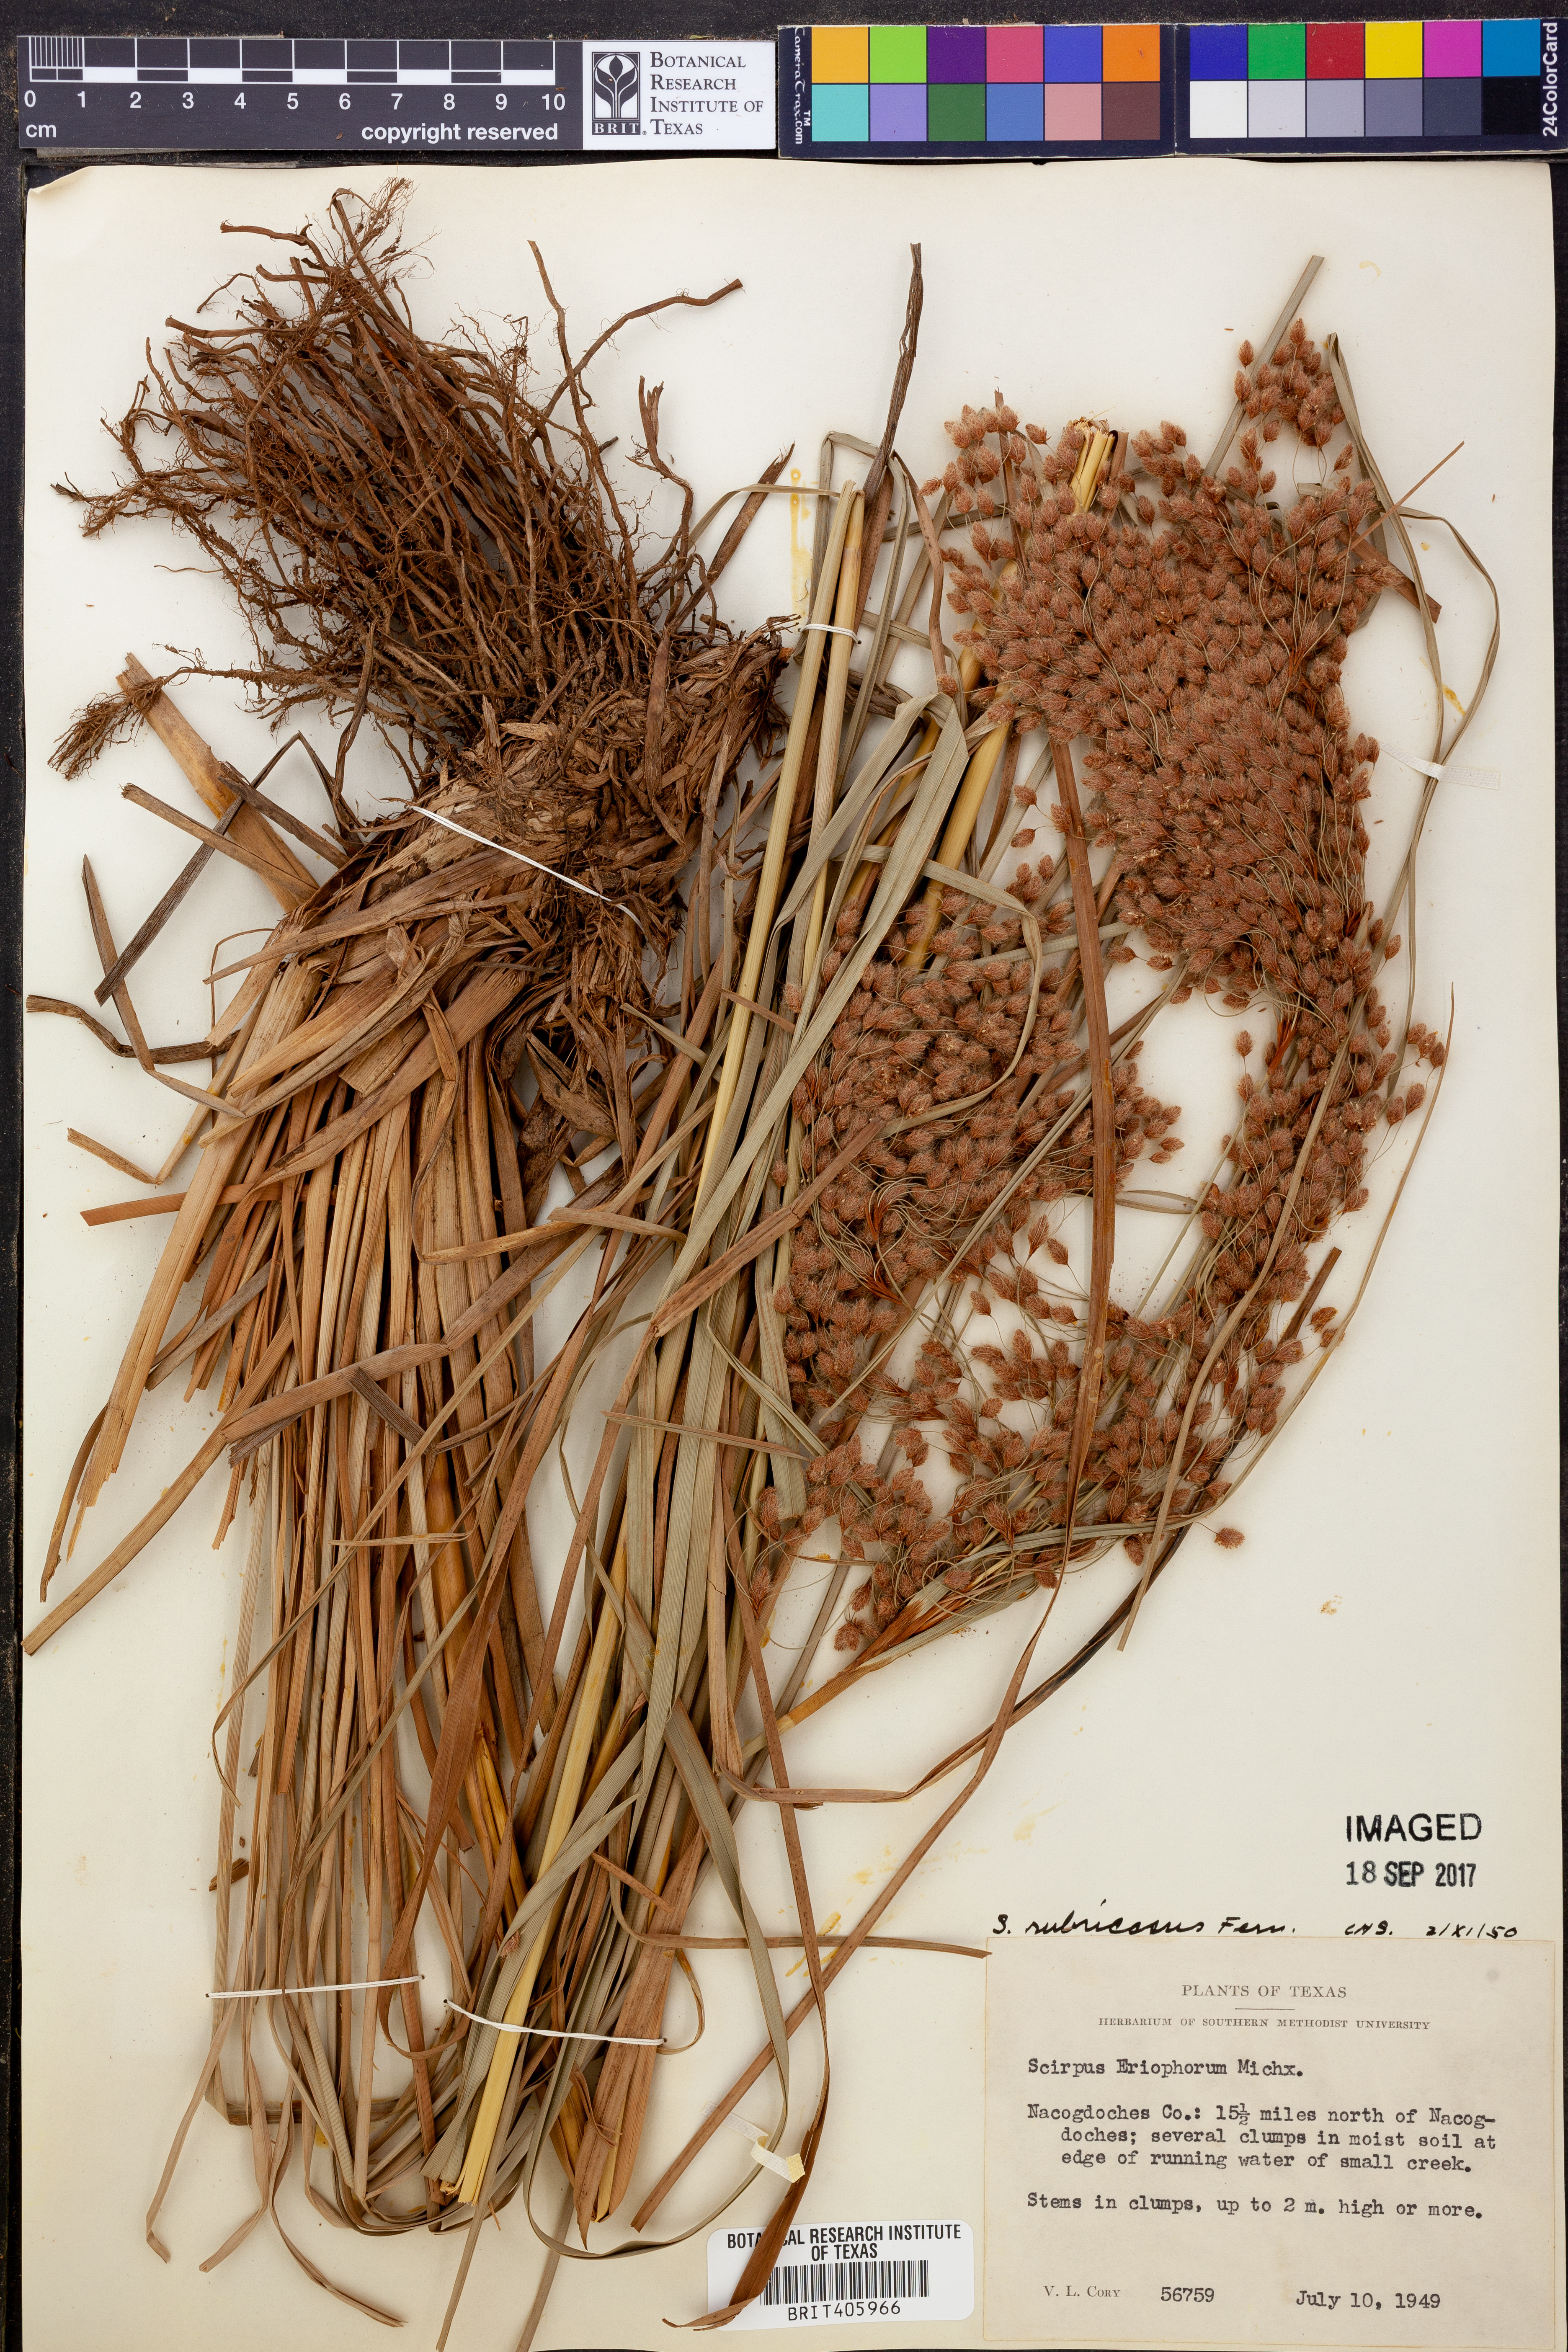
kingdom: Plantae
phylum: Tracheophyta
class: Liliopsida
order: Poales
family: Cyperaceae
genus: Scirpus
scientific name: Scirpus cyperinus
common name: Black-sheathed bulrush
